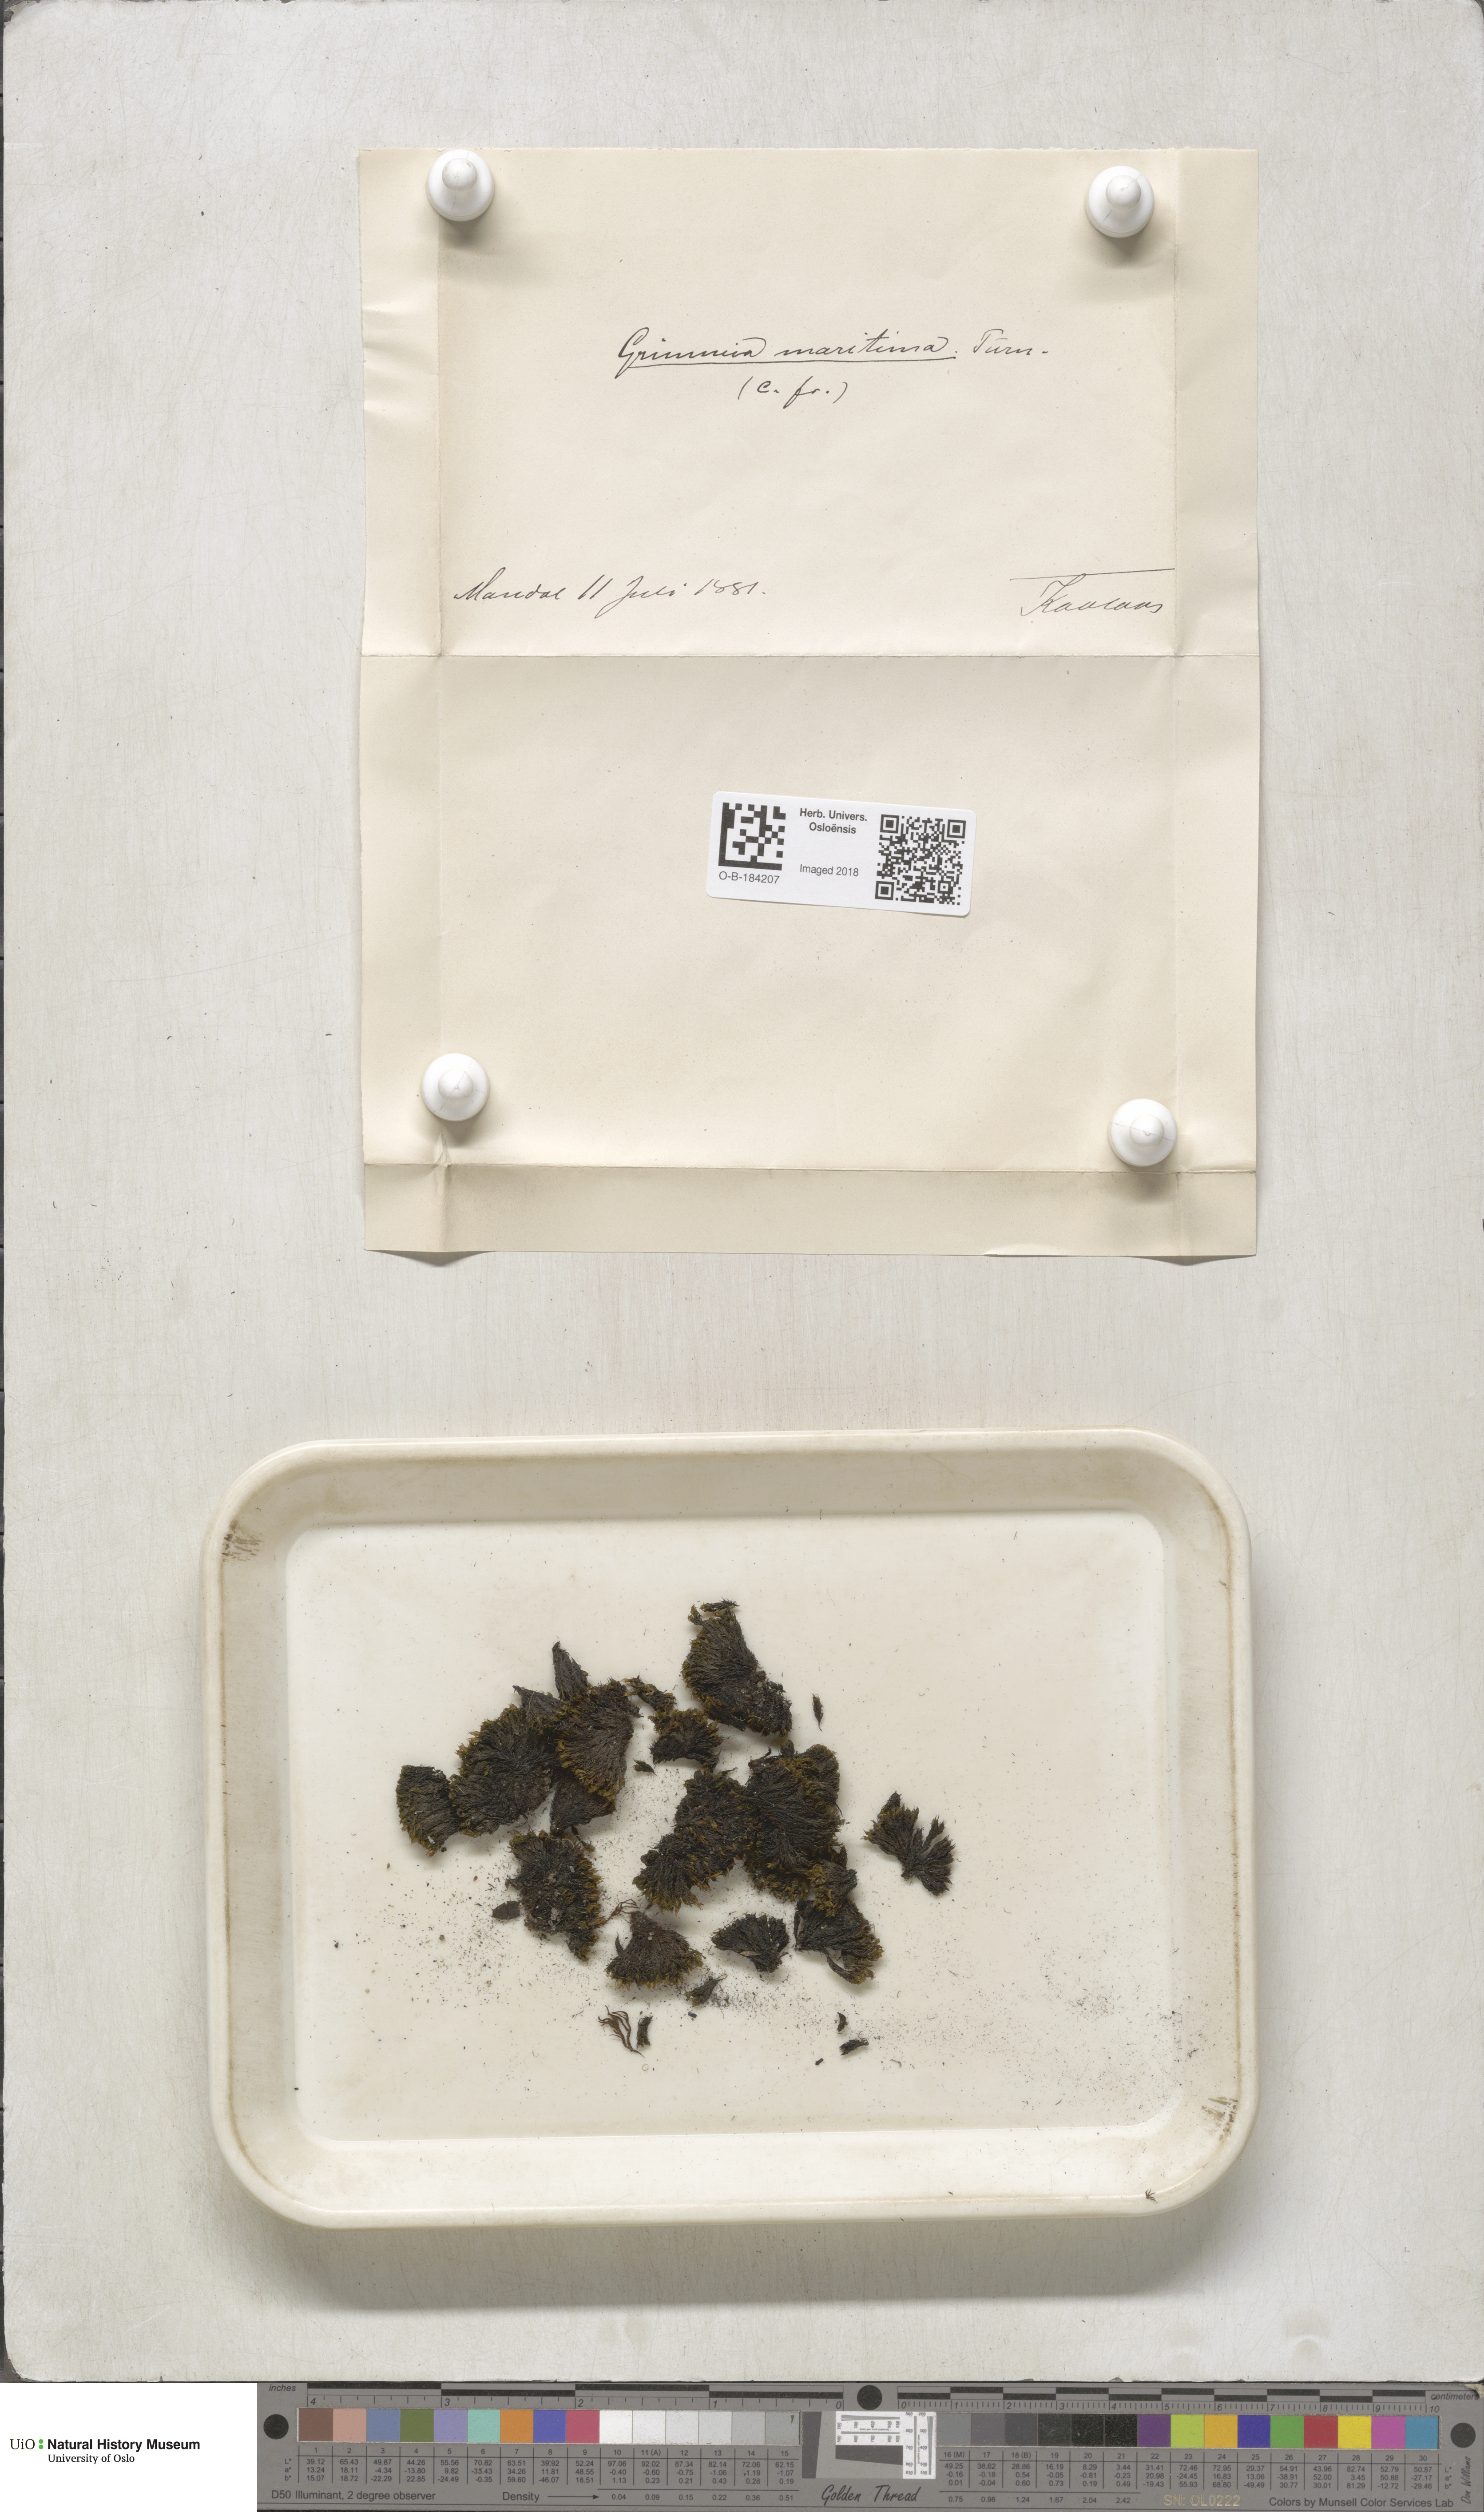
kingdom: Plantae
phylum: Bryophyta
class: Bryopsida
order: Grimmiales
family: Grimmiaceae
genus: Schistidium
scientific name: Schistidium maritimum
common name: Seaside bloom moss
